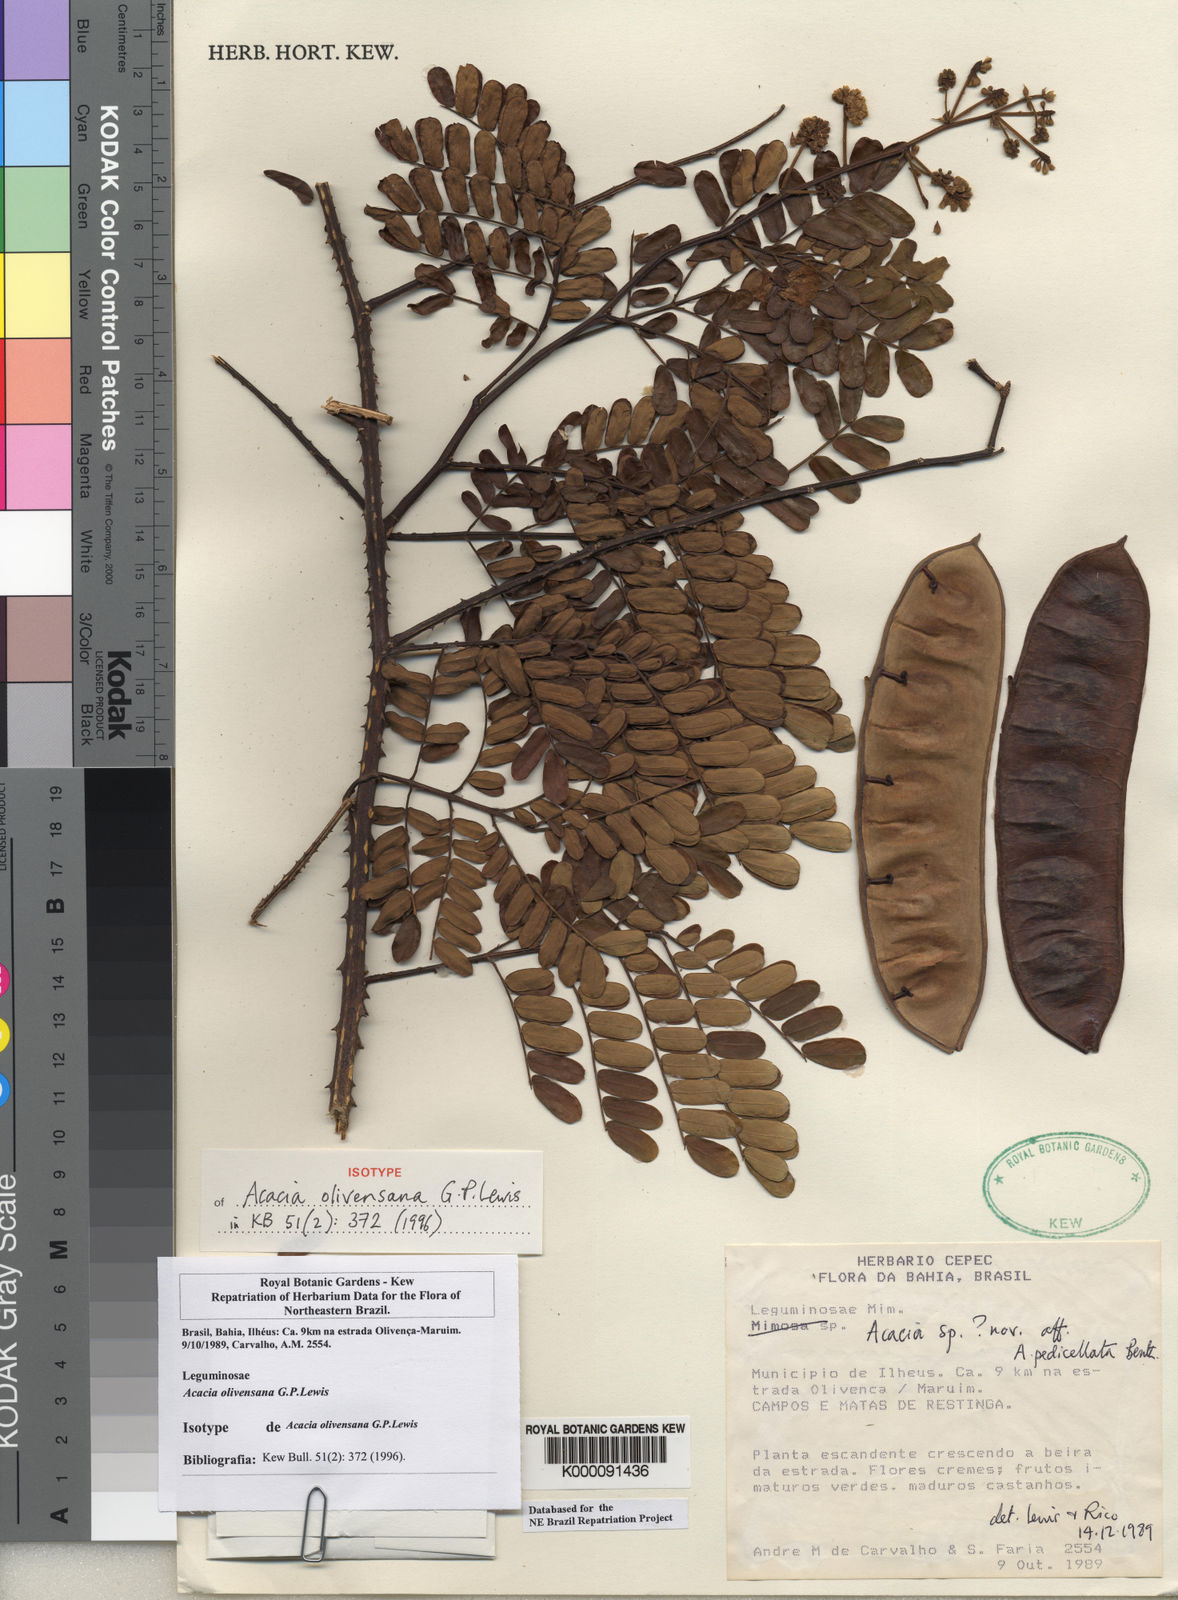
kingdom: Plantae
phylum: Tracheophyta
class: Magnoliopsida
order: Fabales
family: Fabaceae
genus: Senegalia
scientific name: Senegalia olivensana
